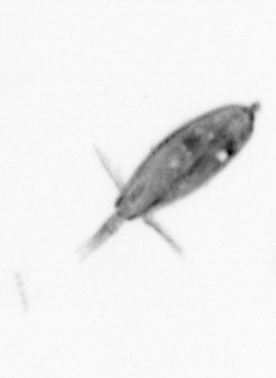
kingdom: Animalia
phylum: Arthropoda
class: Maxillopoda
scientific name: Maxillopoda
